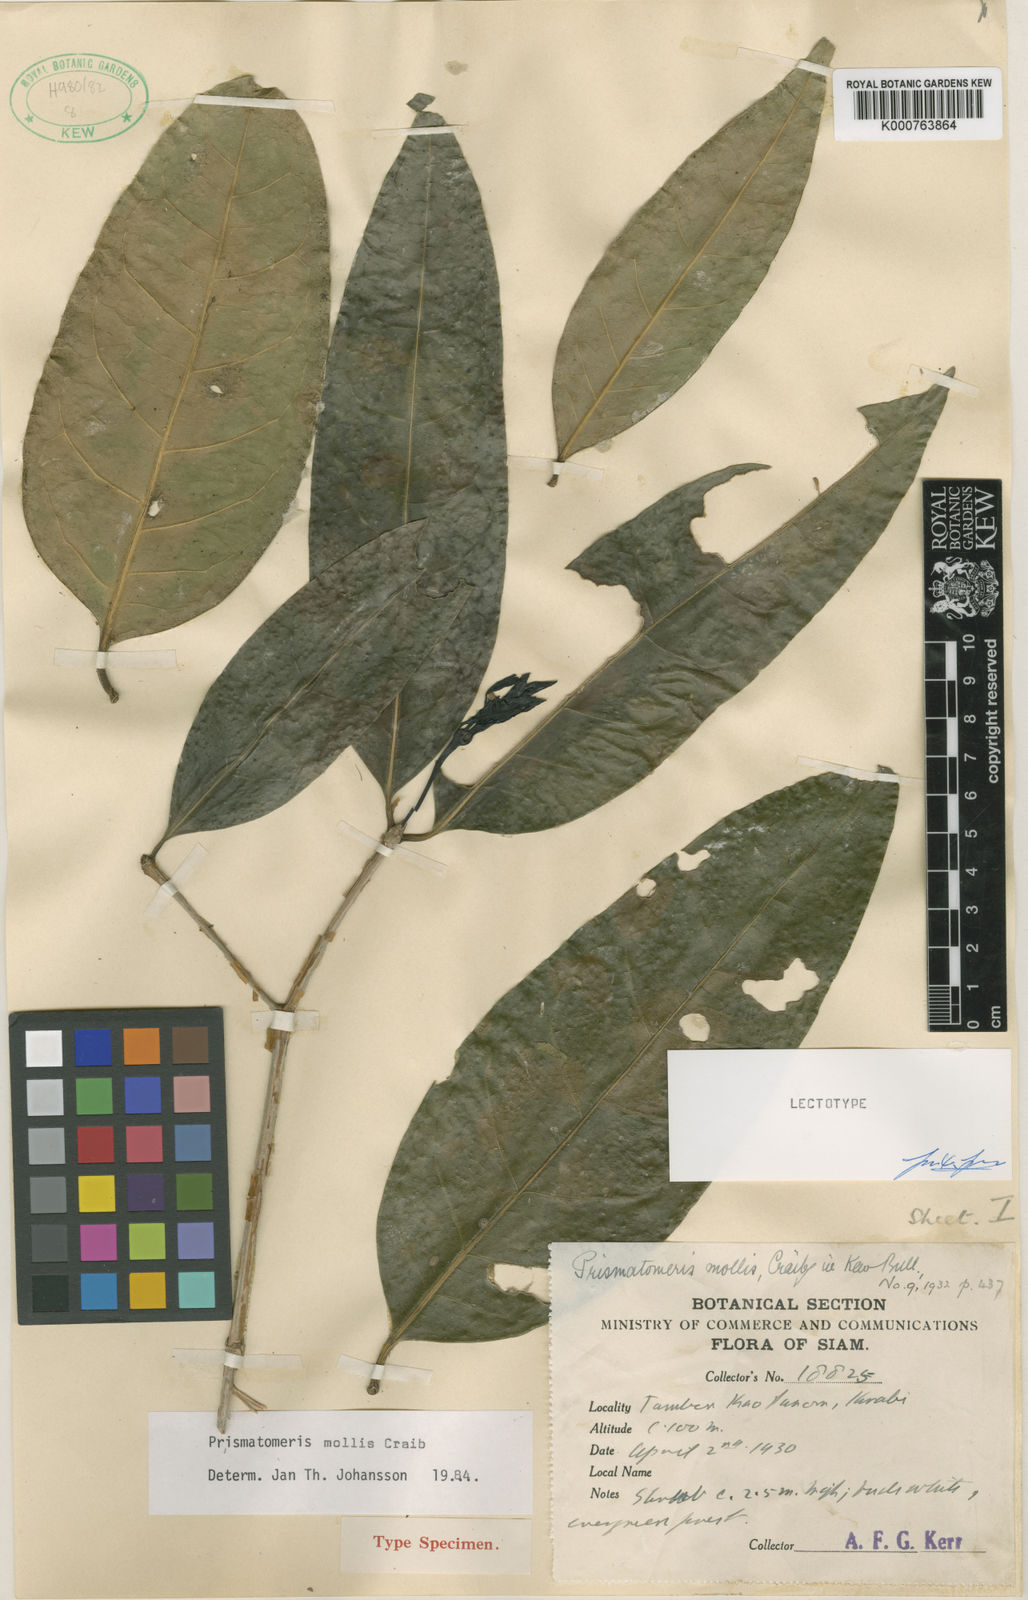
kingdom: Plantae
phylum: Tracheophyta
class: Magnoliopsida
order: Gentianales
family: Rubiaceae
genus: Prismatomeris
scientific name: Prismatomeris mollis
